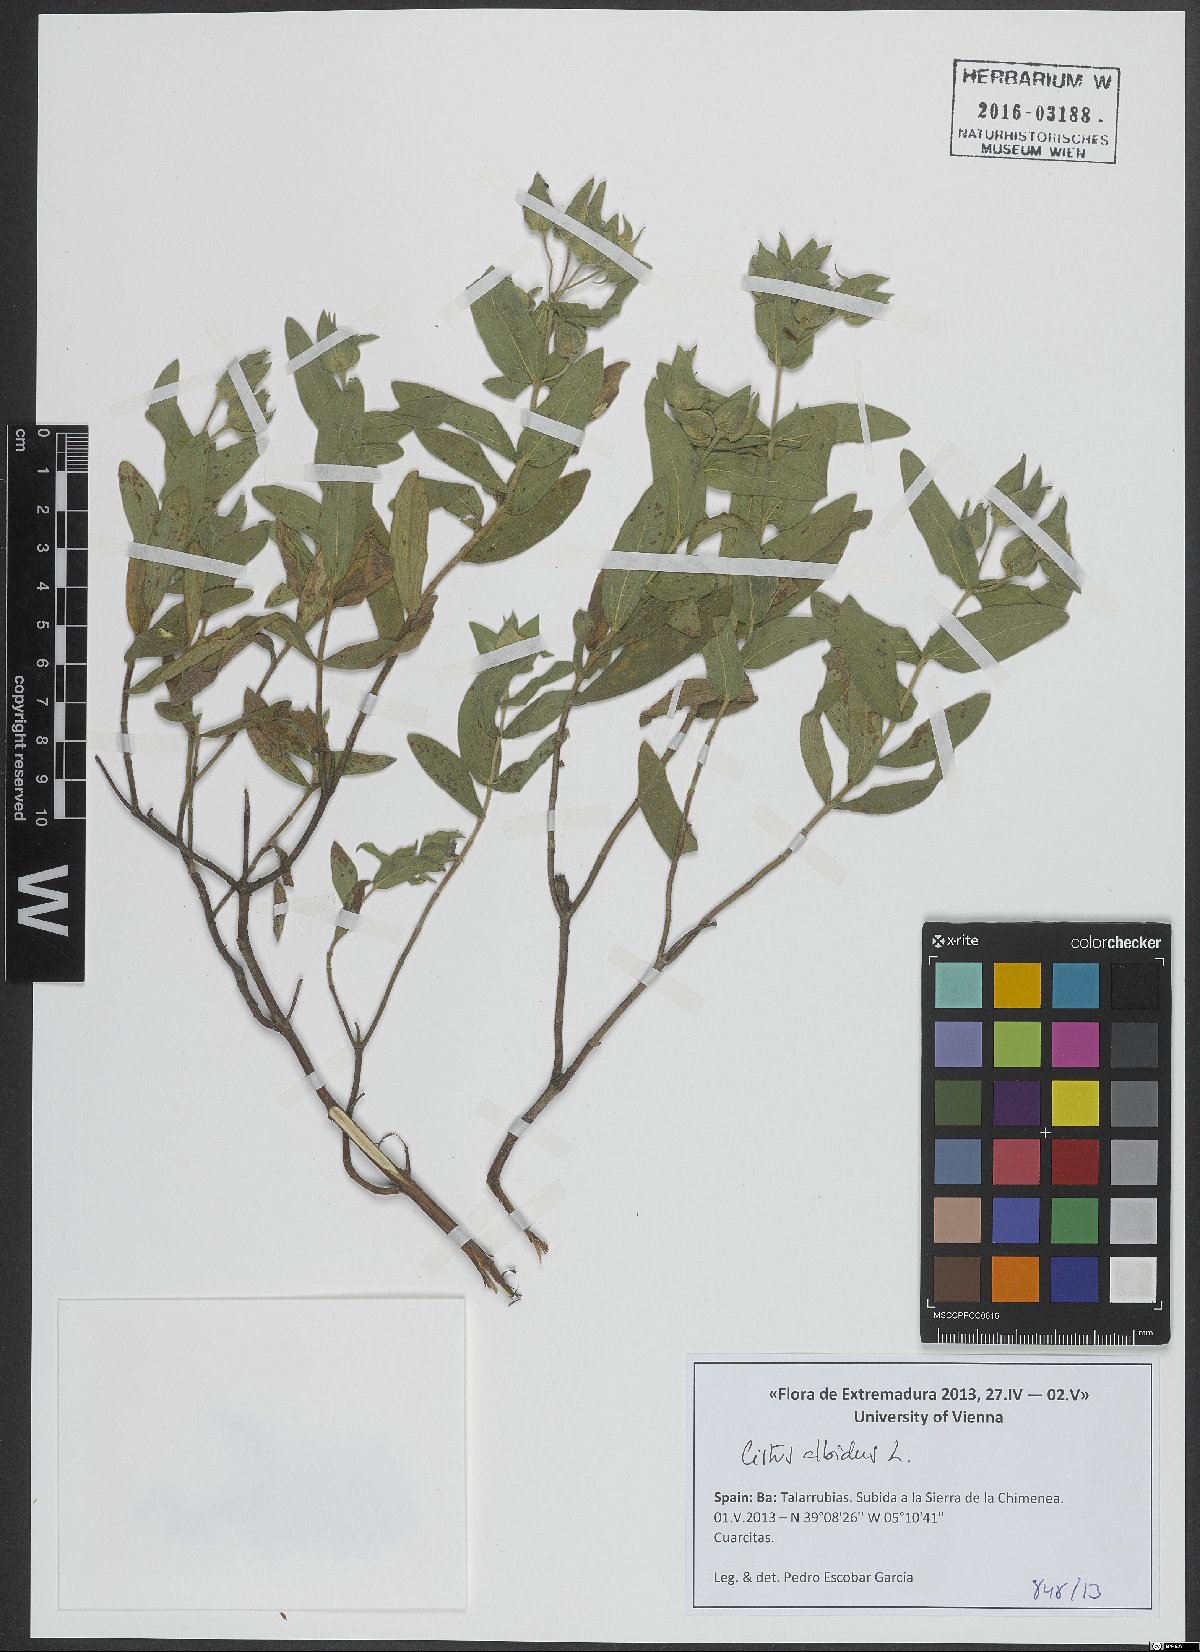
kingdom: Plantae
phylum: Tracheophyta
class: Magnoliopsida
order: Malvales
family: Cistaceae
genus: Cistus
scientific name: Cistus albidus
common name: White-leaf rock-rose
